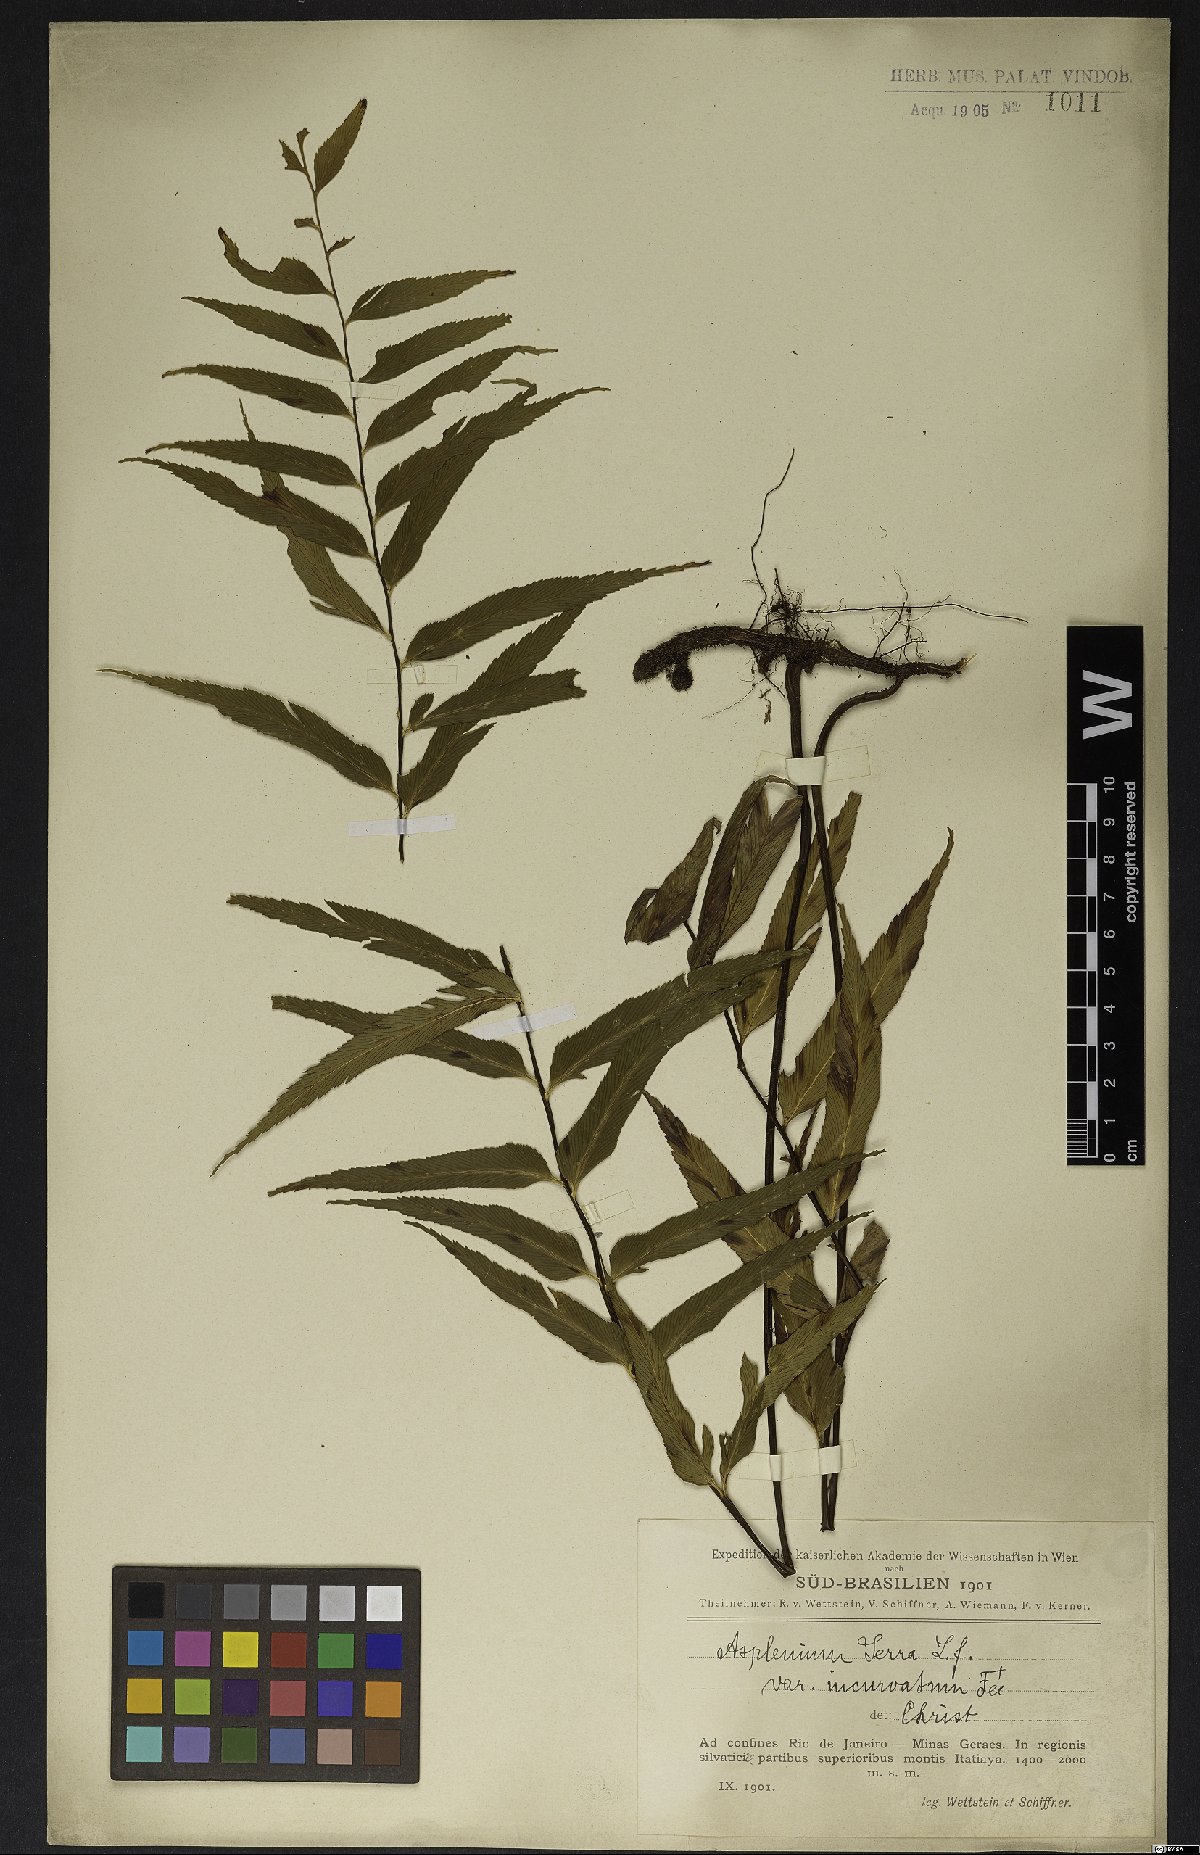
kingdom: Plantae
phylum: Tracheophyta
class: Polypodiopsida
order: Polypodiales
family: Aspleniaceae
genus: Asplenium
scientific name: Asplenium serra
